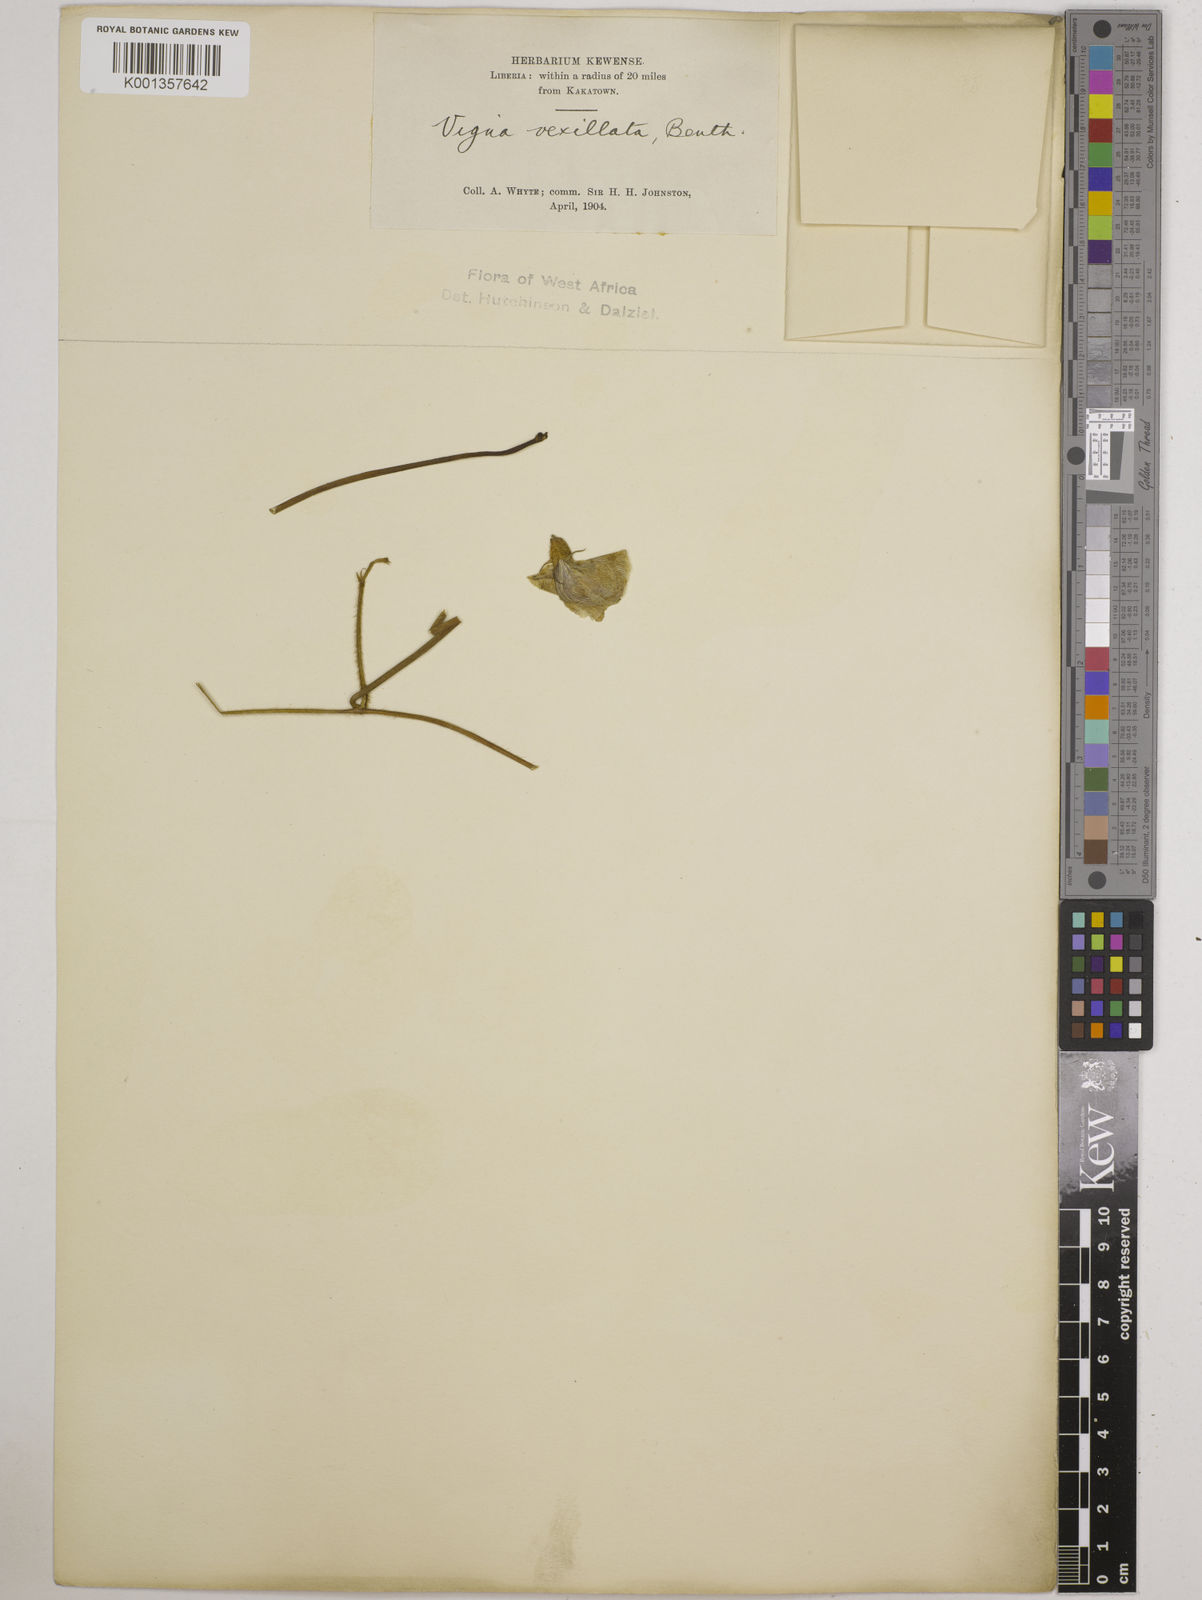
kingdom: Plantae
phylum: Tracheophyta
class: Magnoliopsida
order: Fabales
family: Fabaceae
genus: Vigna
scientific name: Vigna vexillata
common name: Zombi pea
